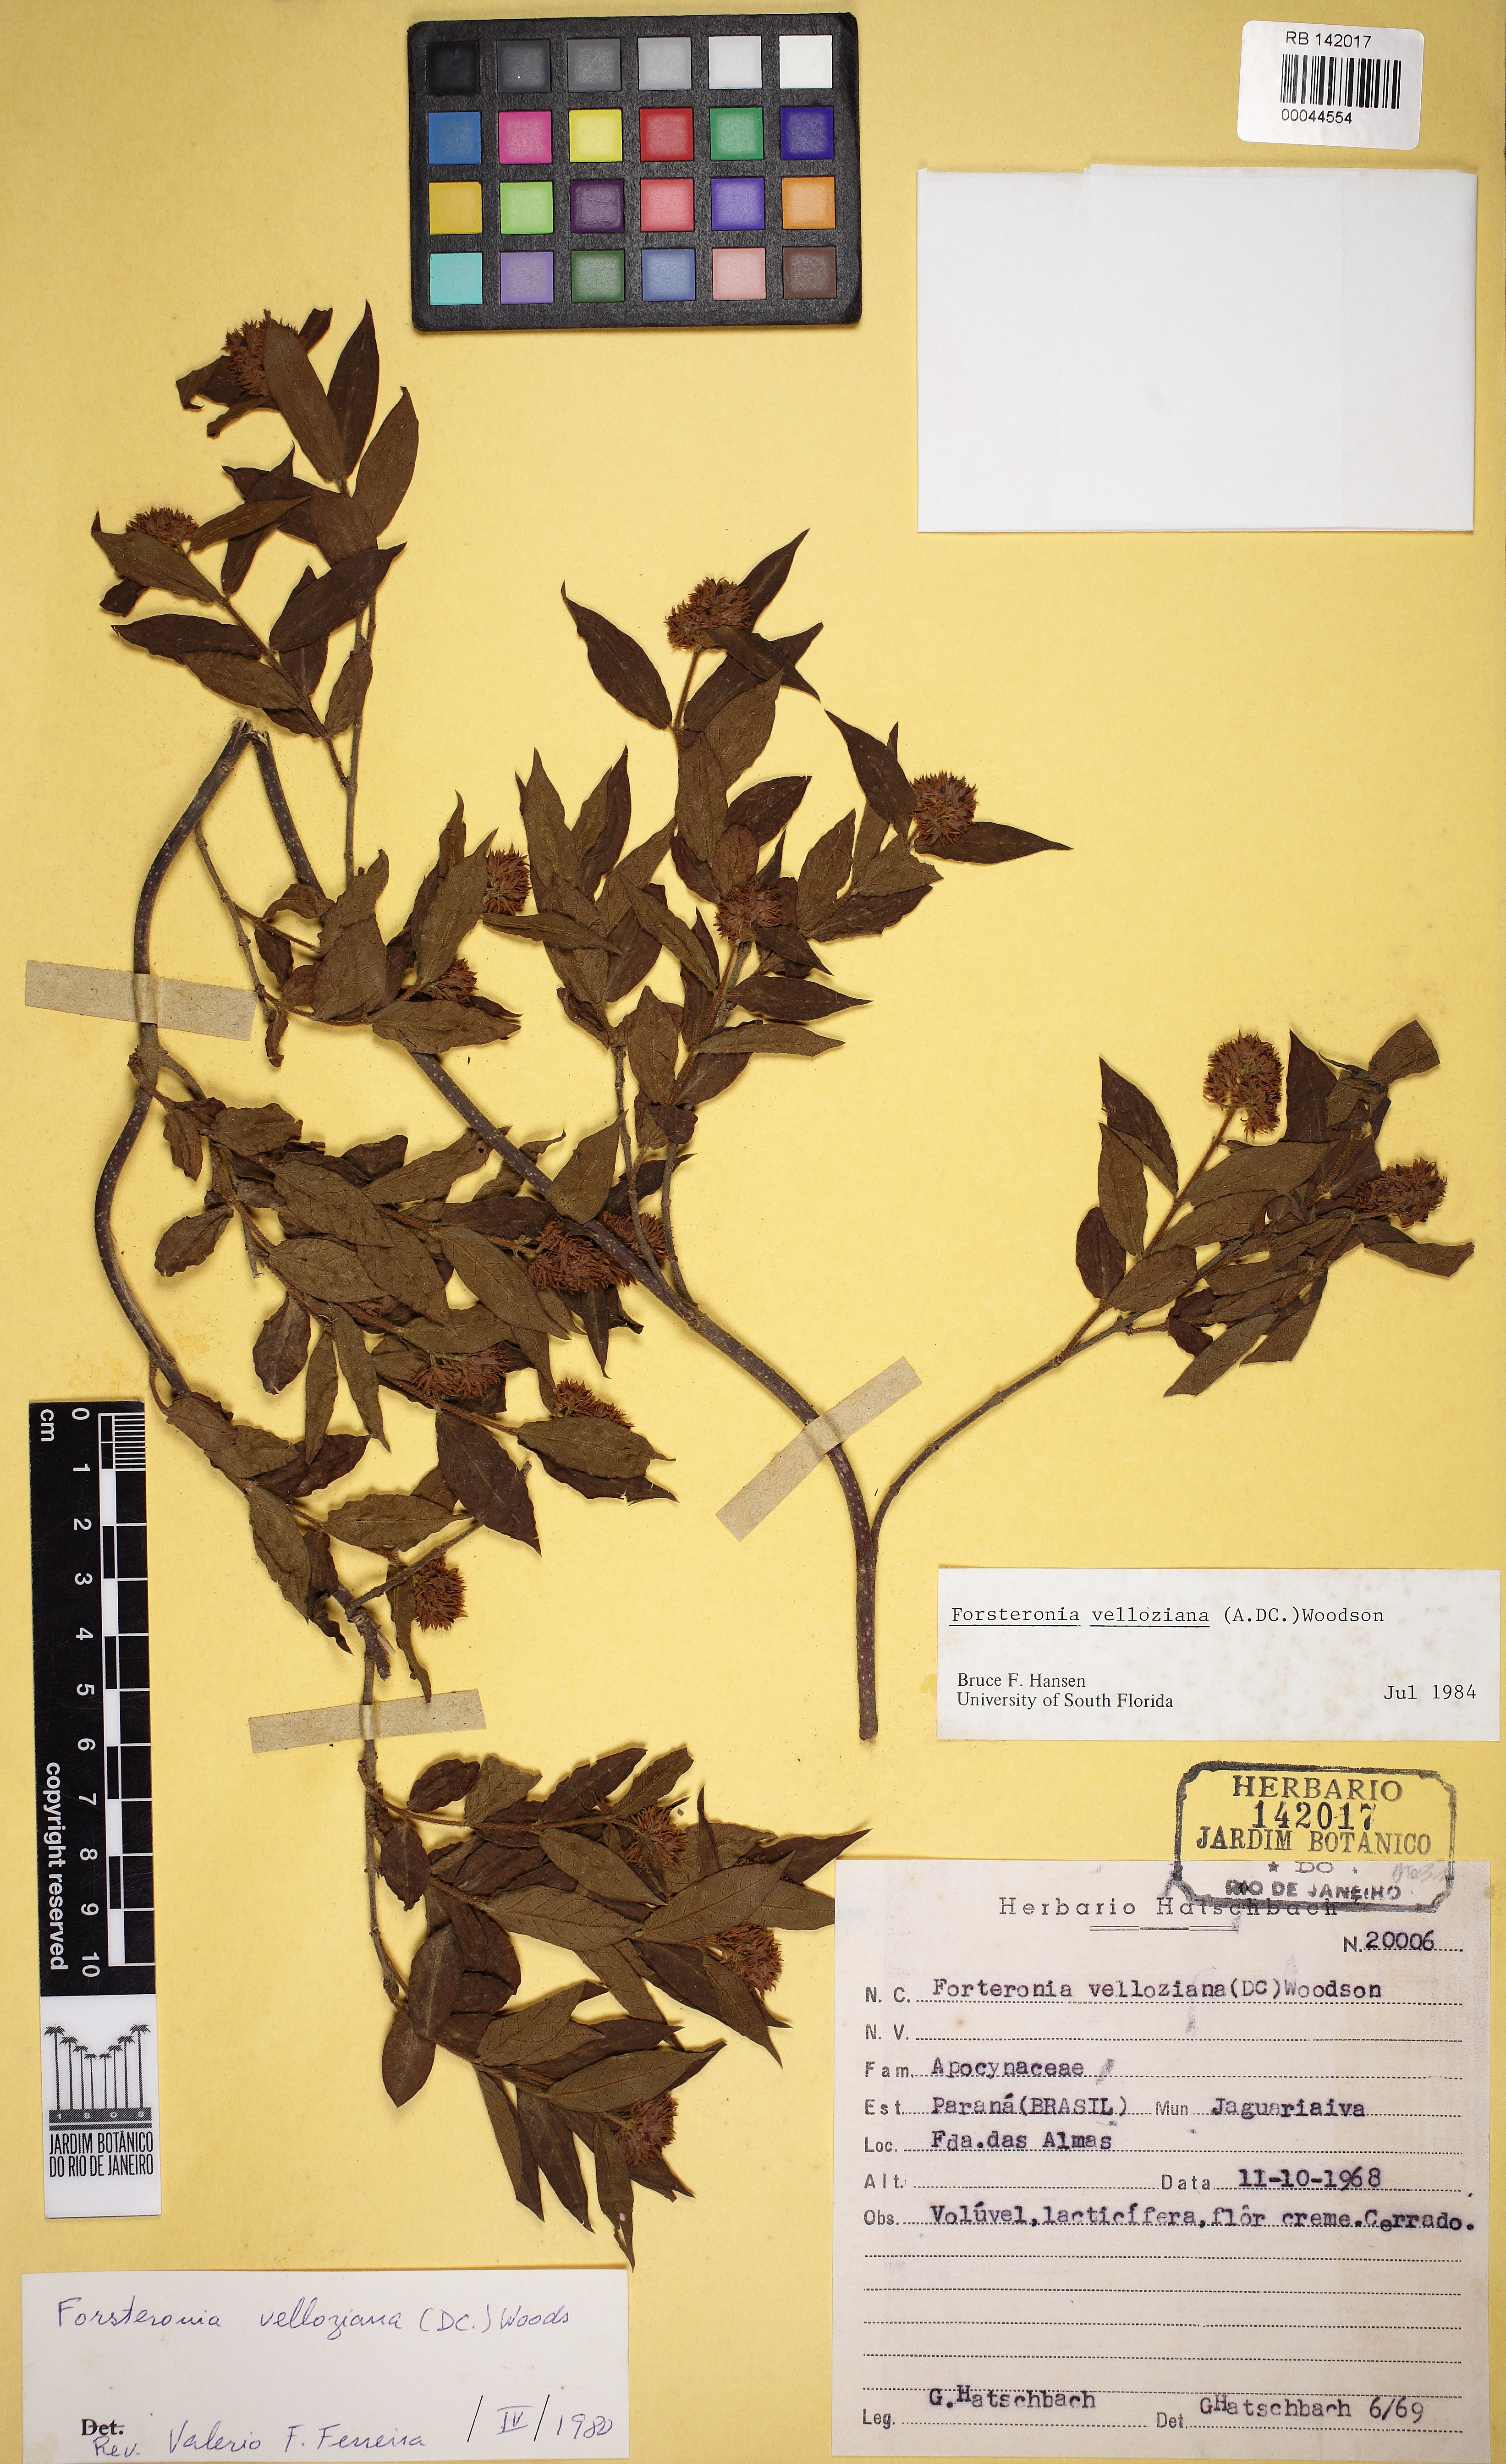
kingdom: Plantae
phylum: Tracheophyta
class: Magnoliopsida
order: Gentianales
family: Apocynaceae
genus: Forsteronia
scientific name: Forsteronia velloziana
